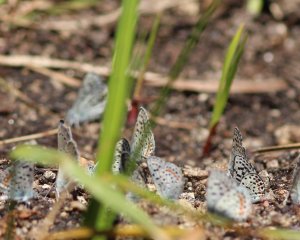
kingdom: Animalia
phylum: Arthropoda
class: Insecta
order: Lepidoptera
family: Lycaenidae
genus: Euphilotes
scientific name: Euphilotes
